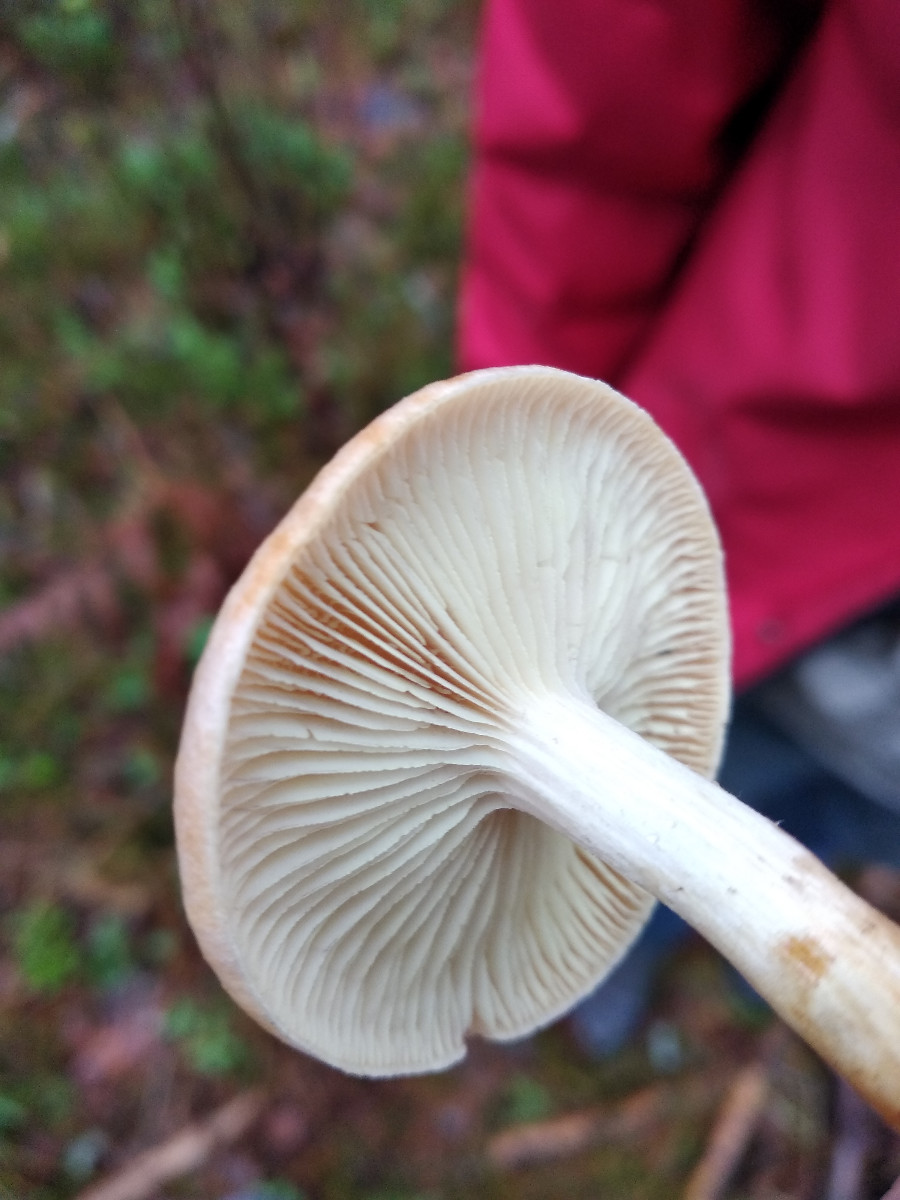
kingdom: Fungi
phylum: Basidiomycota
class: Agaricomycetes
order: Agaricales
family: Hygrophoraceae
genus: Hygrophorus
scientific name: Hygrophorus
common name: sneglehat
